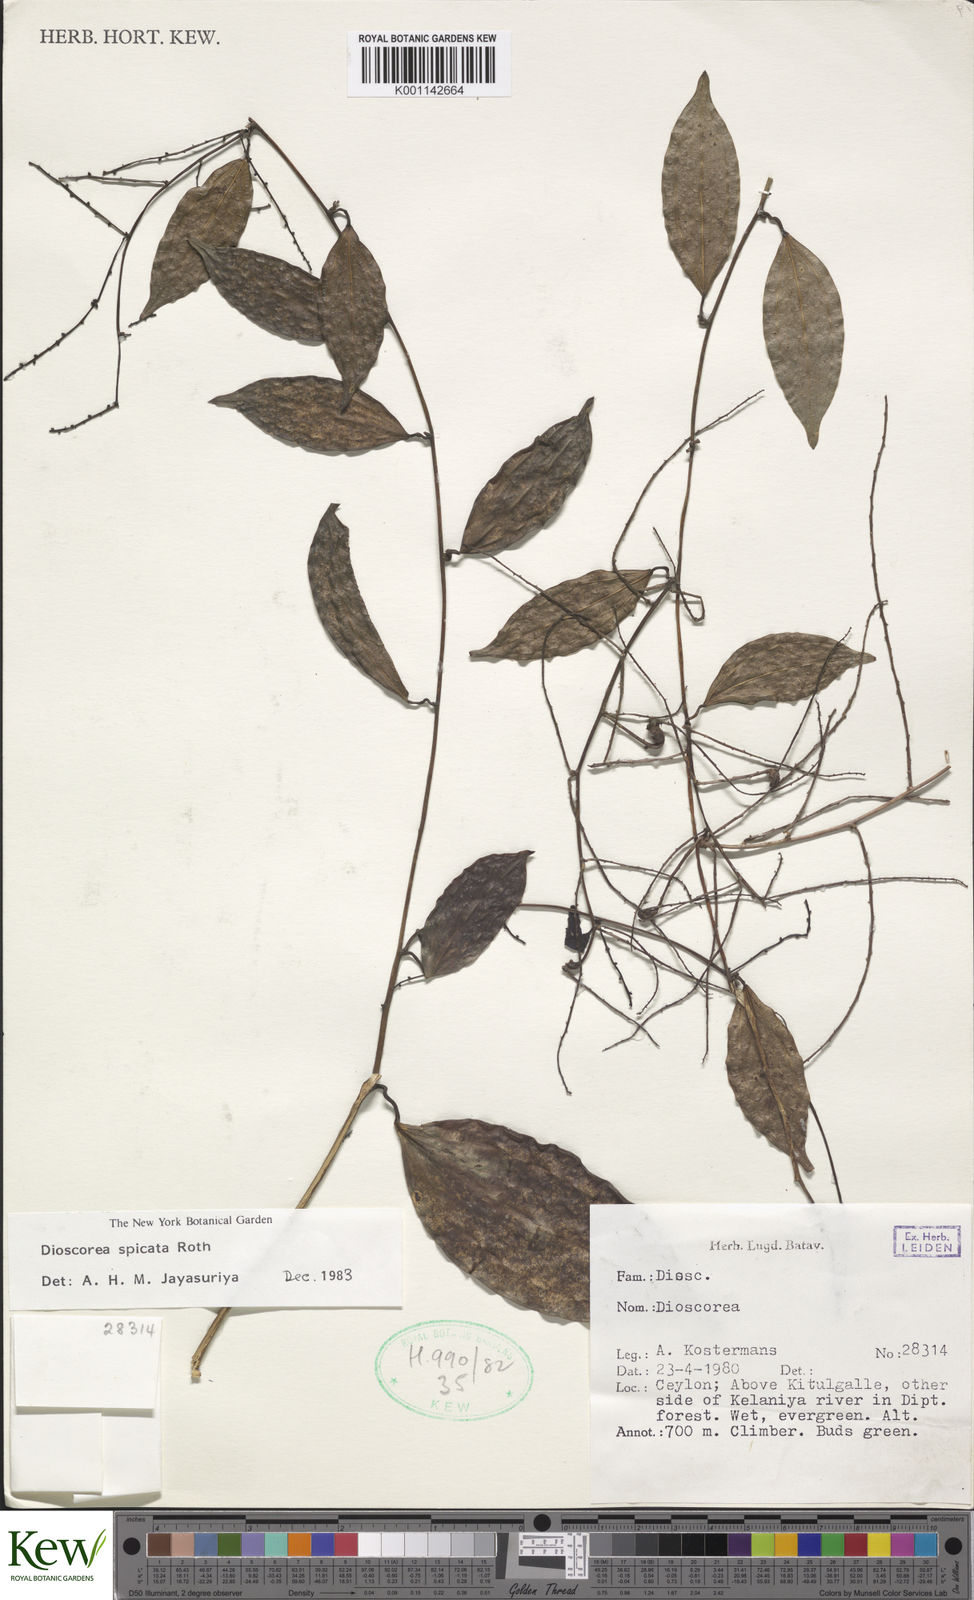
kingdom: Plantae
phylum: Tracheophyta
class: Liliopsida
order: Dioscoreales
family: Dioscoreaceae
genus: Dioscorea
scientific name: Dioscorea spicata
